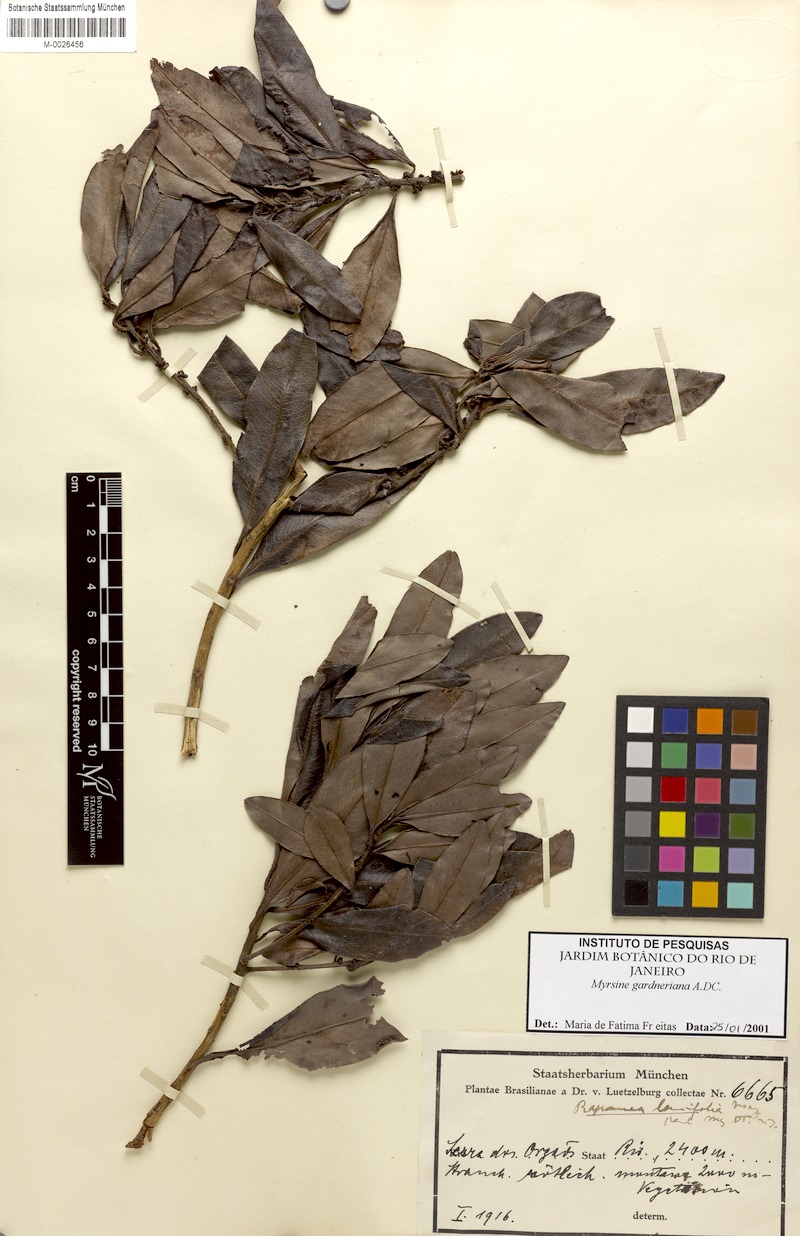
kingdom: Plantae
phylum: Tracheophyta
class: Magnoliopsida
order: Ericales
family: Primulaceae
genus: Myrsine
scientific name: Myrsine gardneriana
